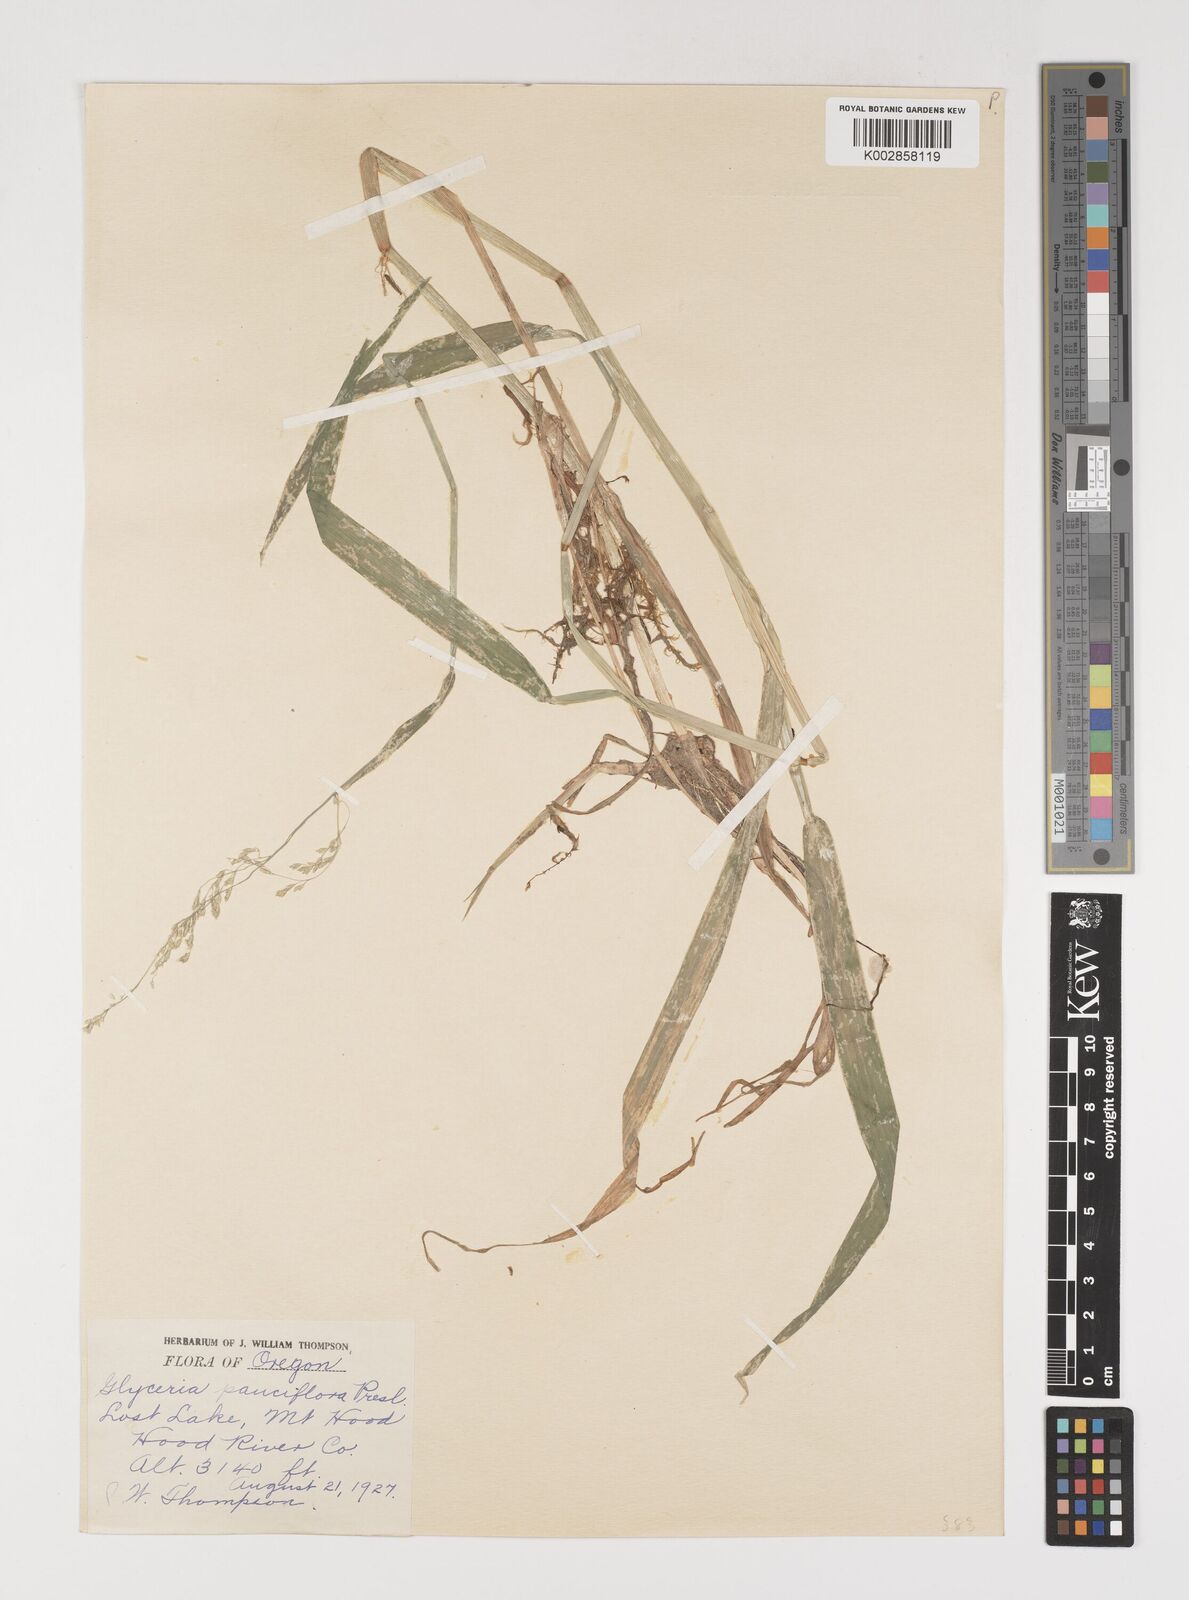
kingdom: Plantae
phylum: Tracheophyta
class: Liliopsida
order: Poales
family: Poaceae
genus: Torreyochloa
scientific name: Torreyochloa pallida
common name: Pale false mannagrass
